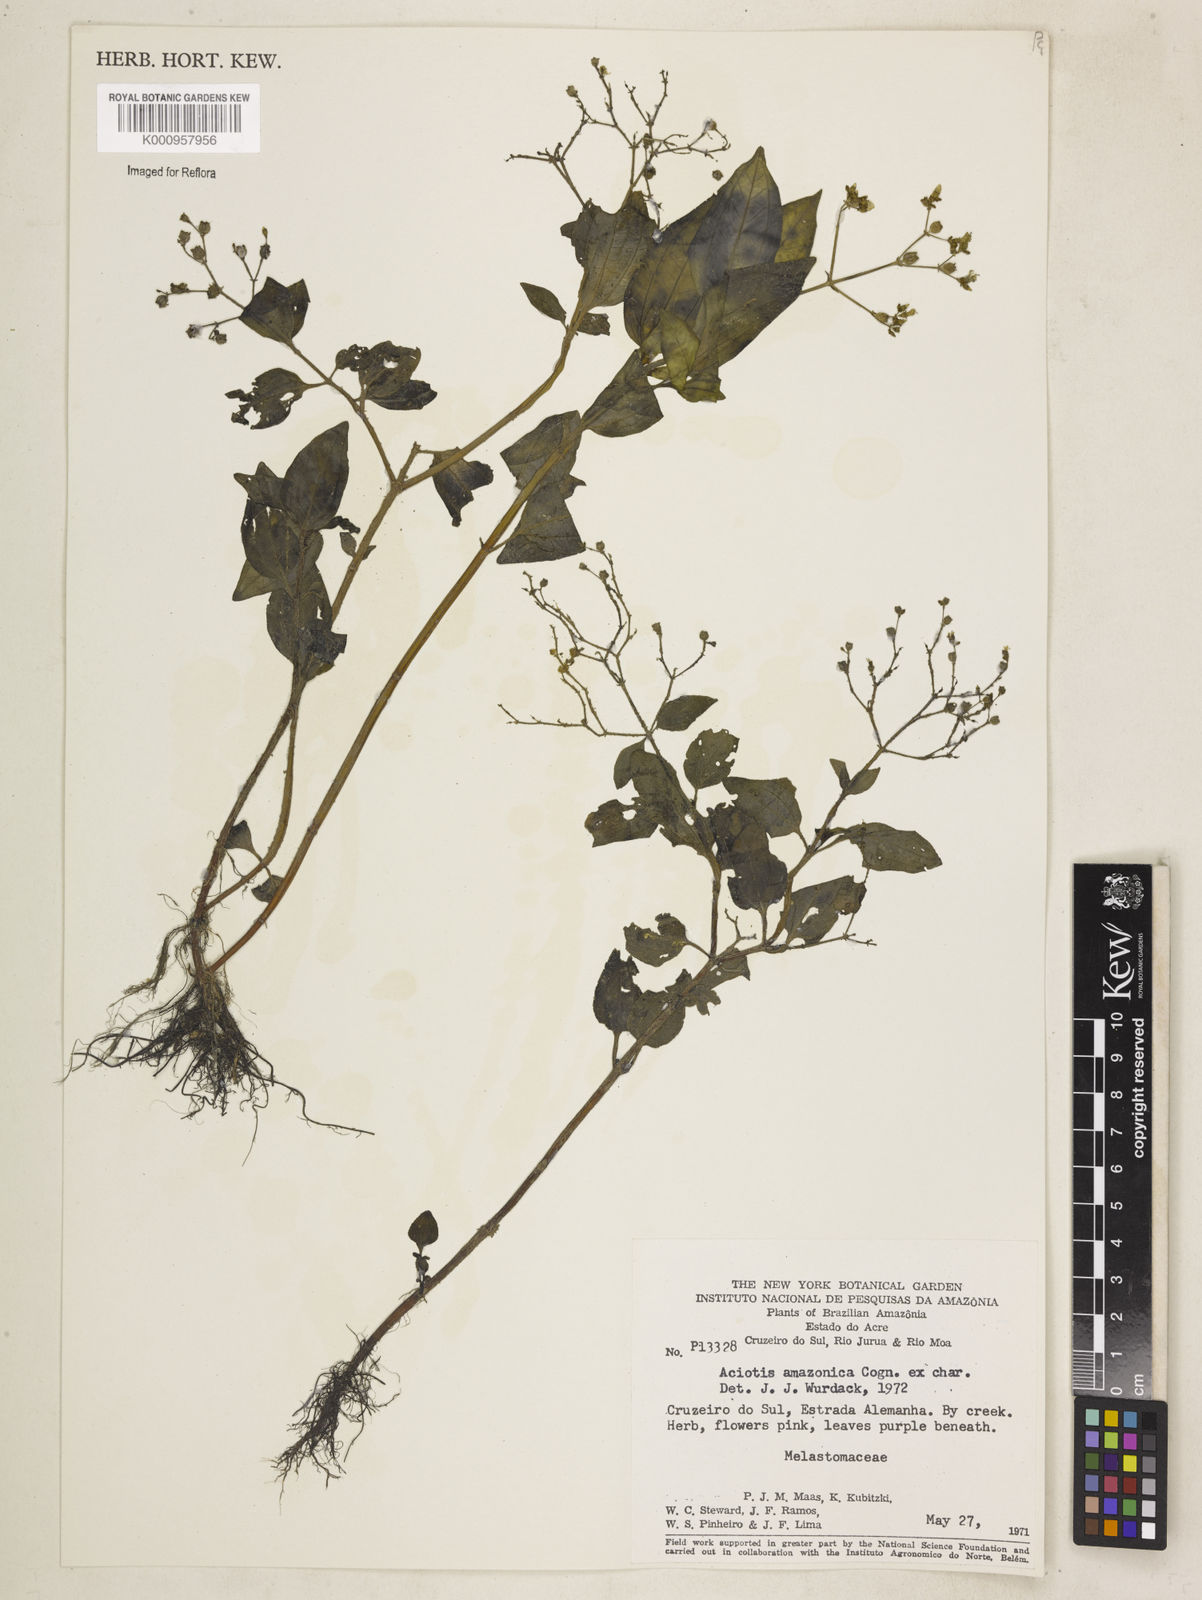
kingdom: Plantae
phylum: Tracheophyta
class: Magnoliopsida
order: Myrtales
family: Melastomataceae
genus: Aciotis
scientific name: Aciotis acuminifolia
